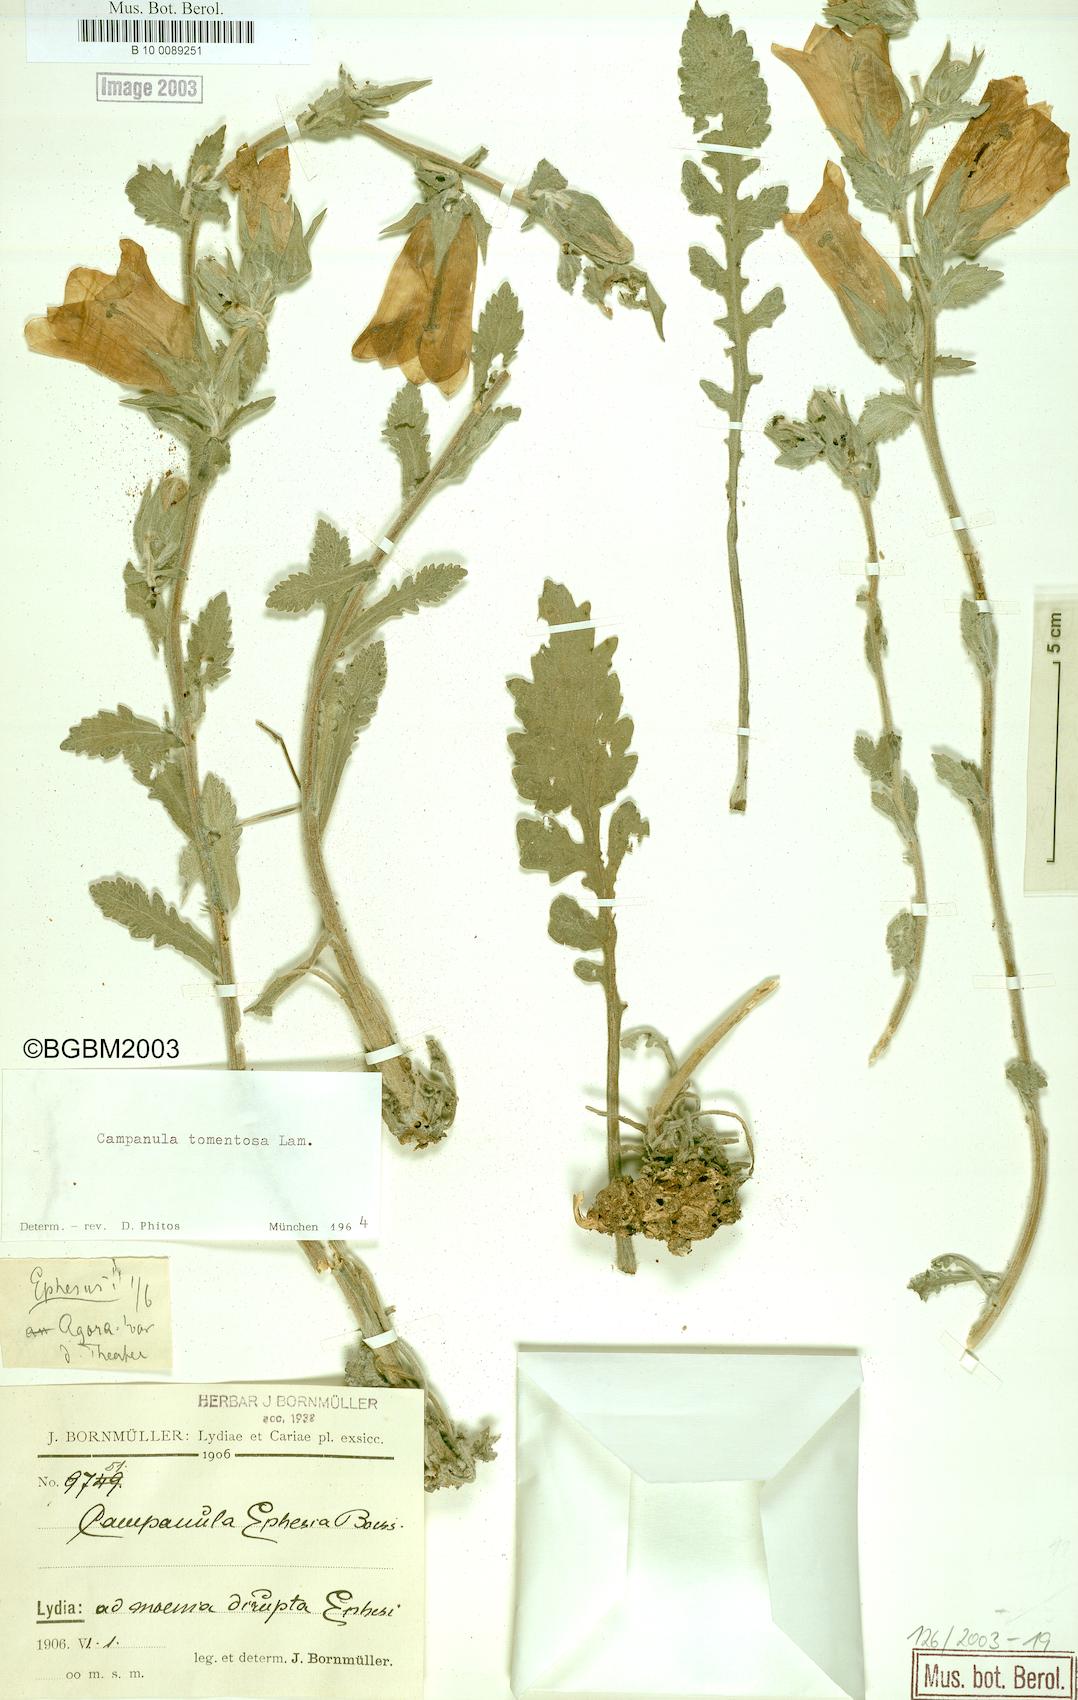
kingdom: Plantae
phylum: Tracheophyta
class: Magnoliopsida
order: Asterales
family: Campanulaceae
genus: Campanula
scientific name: Campanula tomentosa
